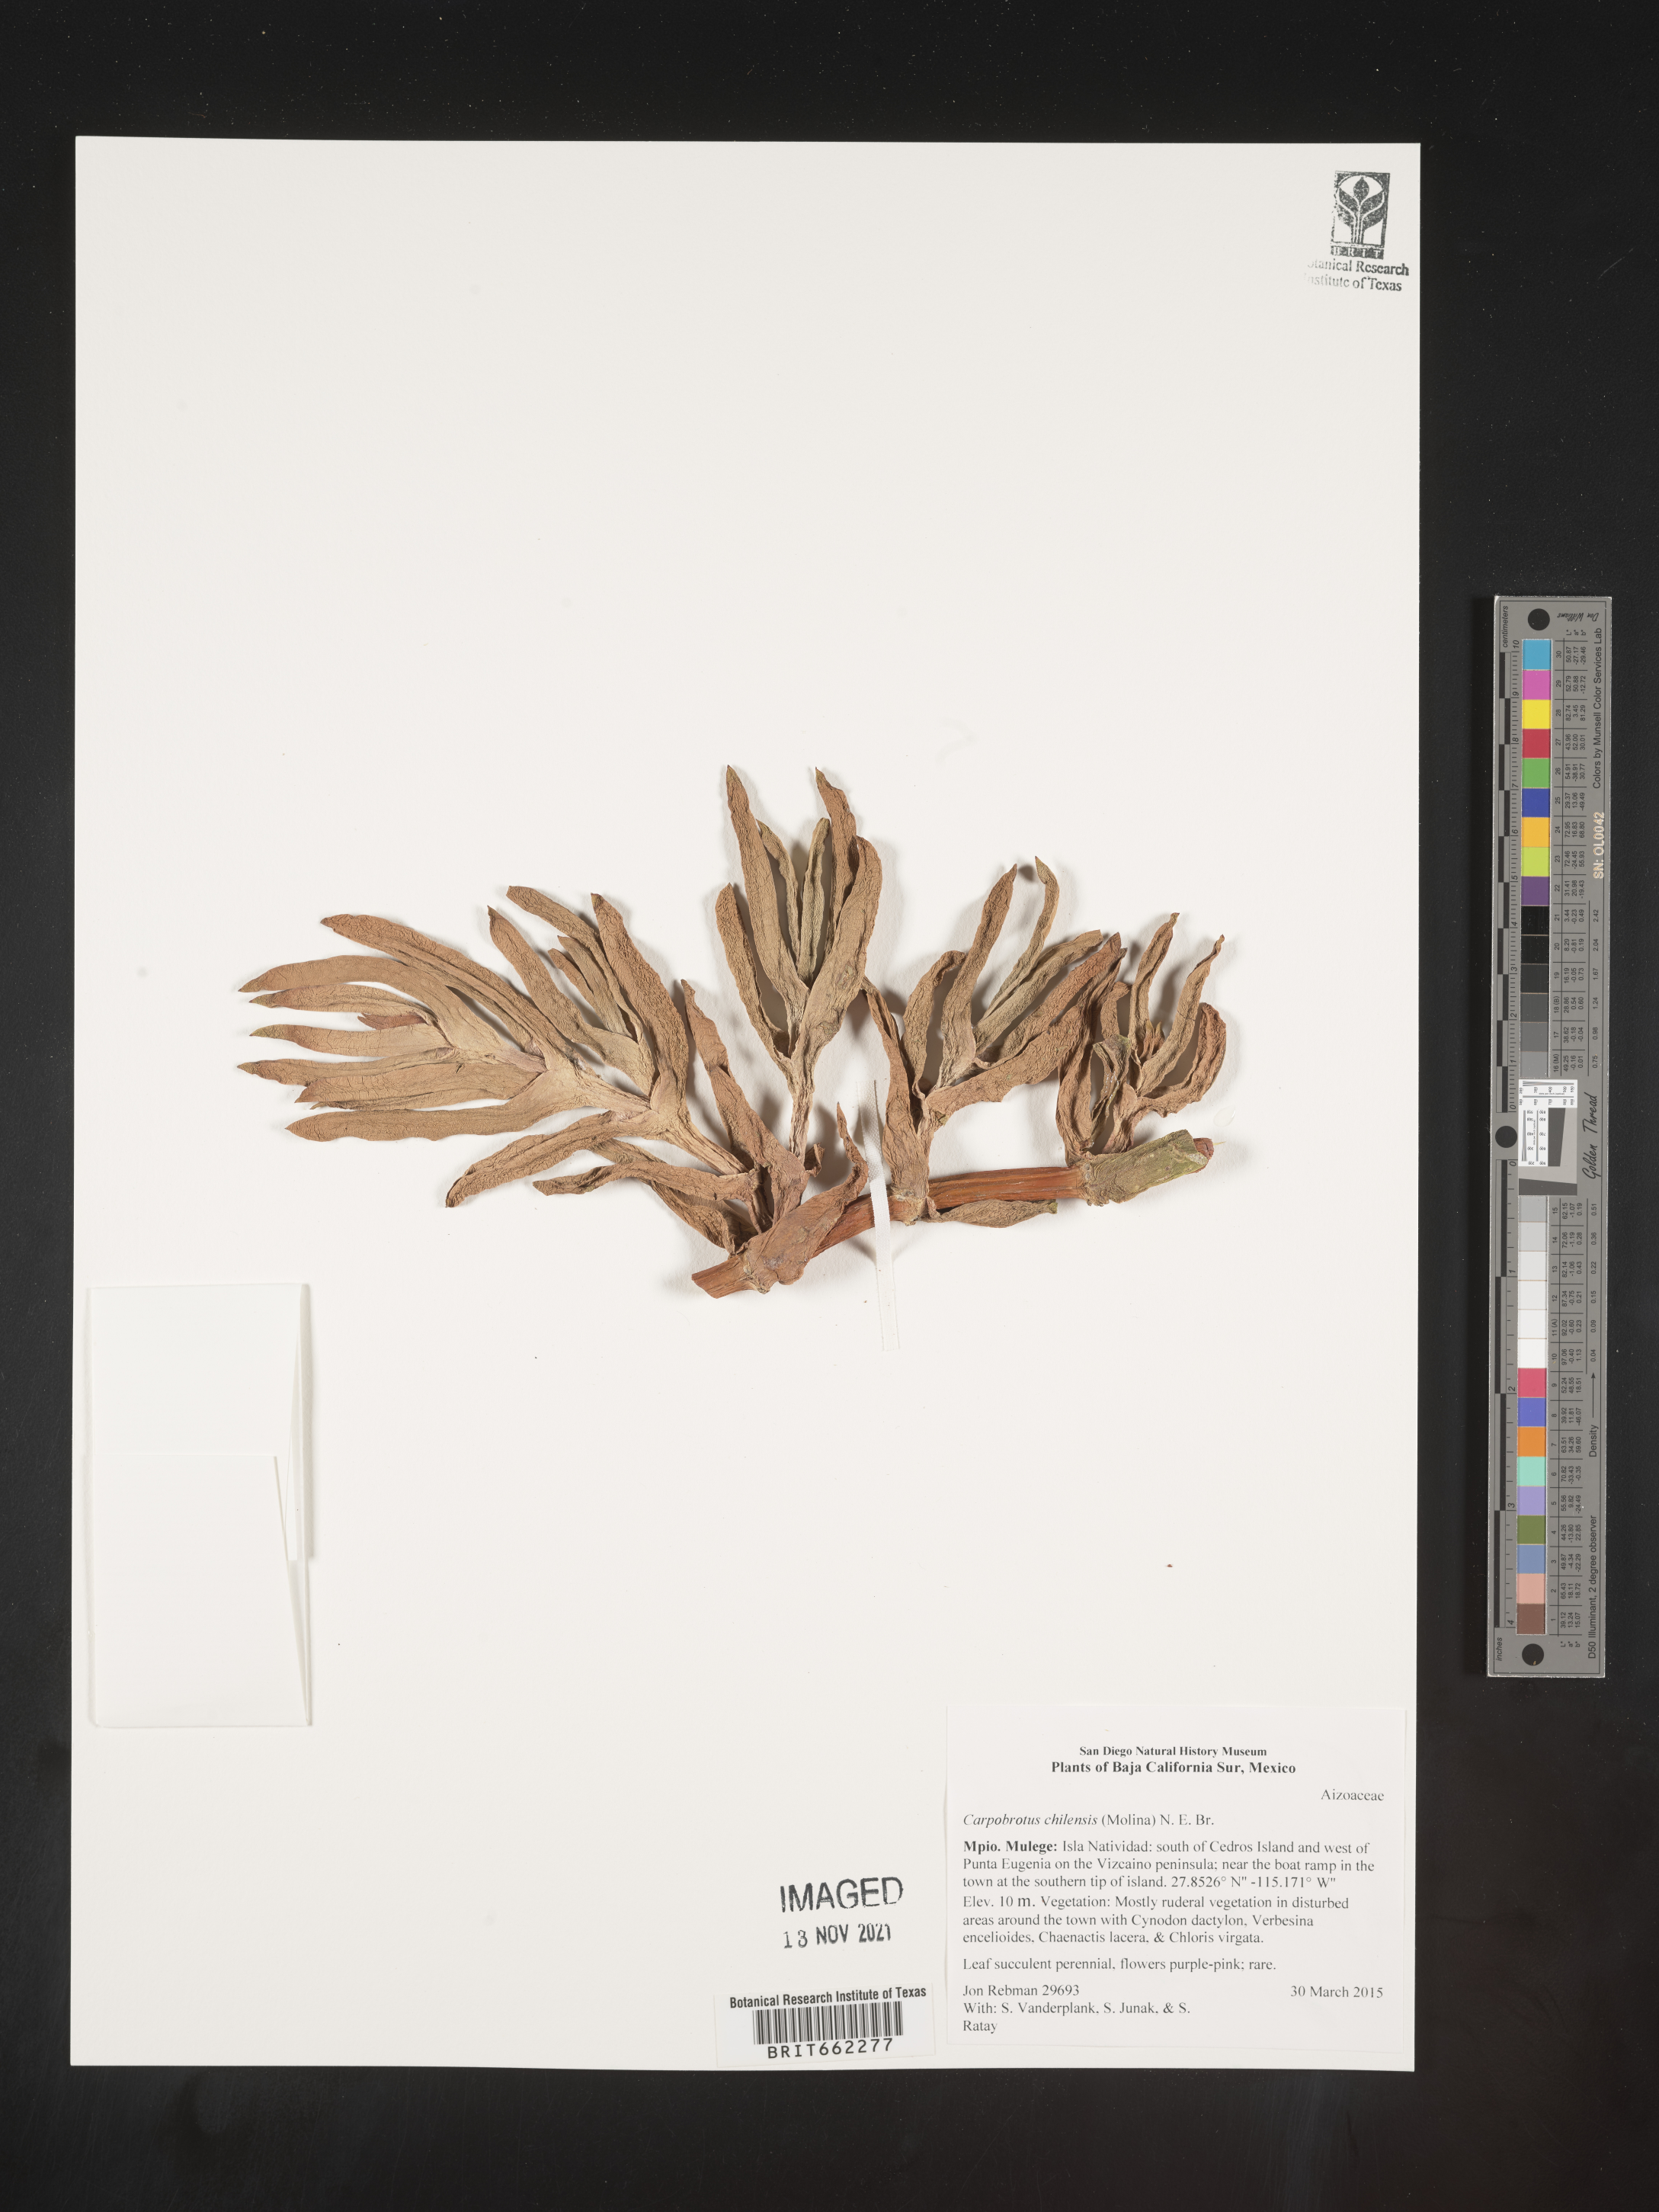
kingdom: Plantae
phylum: Tracheophyta
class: Magnoliopsida
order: Caryophyllales
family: Aizoaceae
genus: Carpobrotus
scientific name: Carpobrotus
